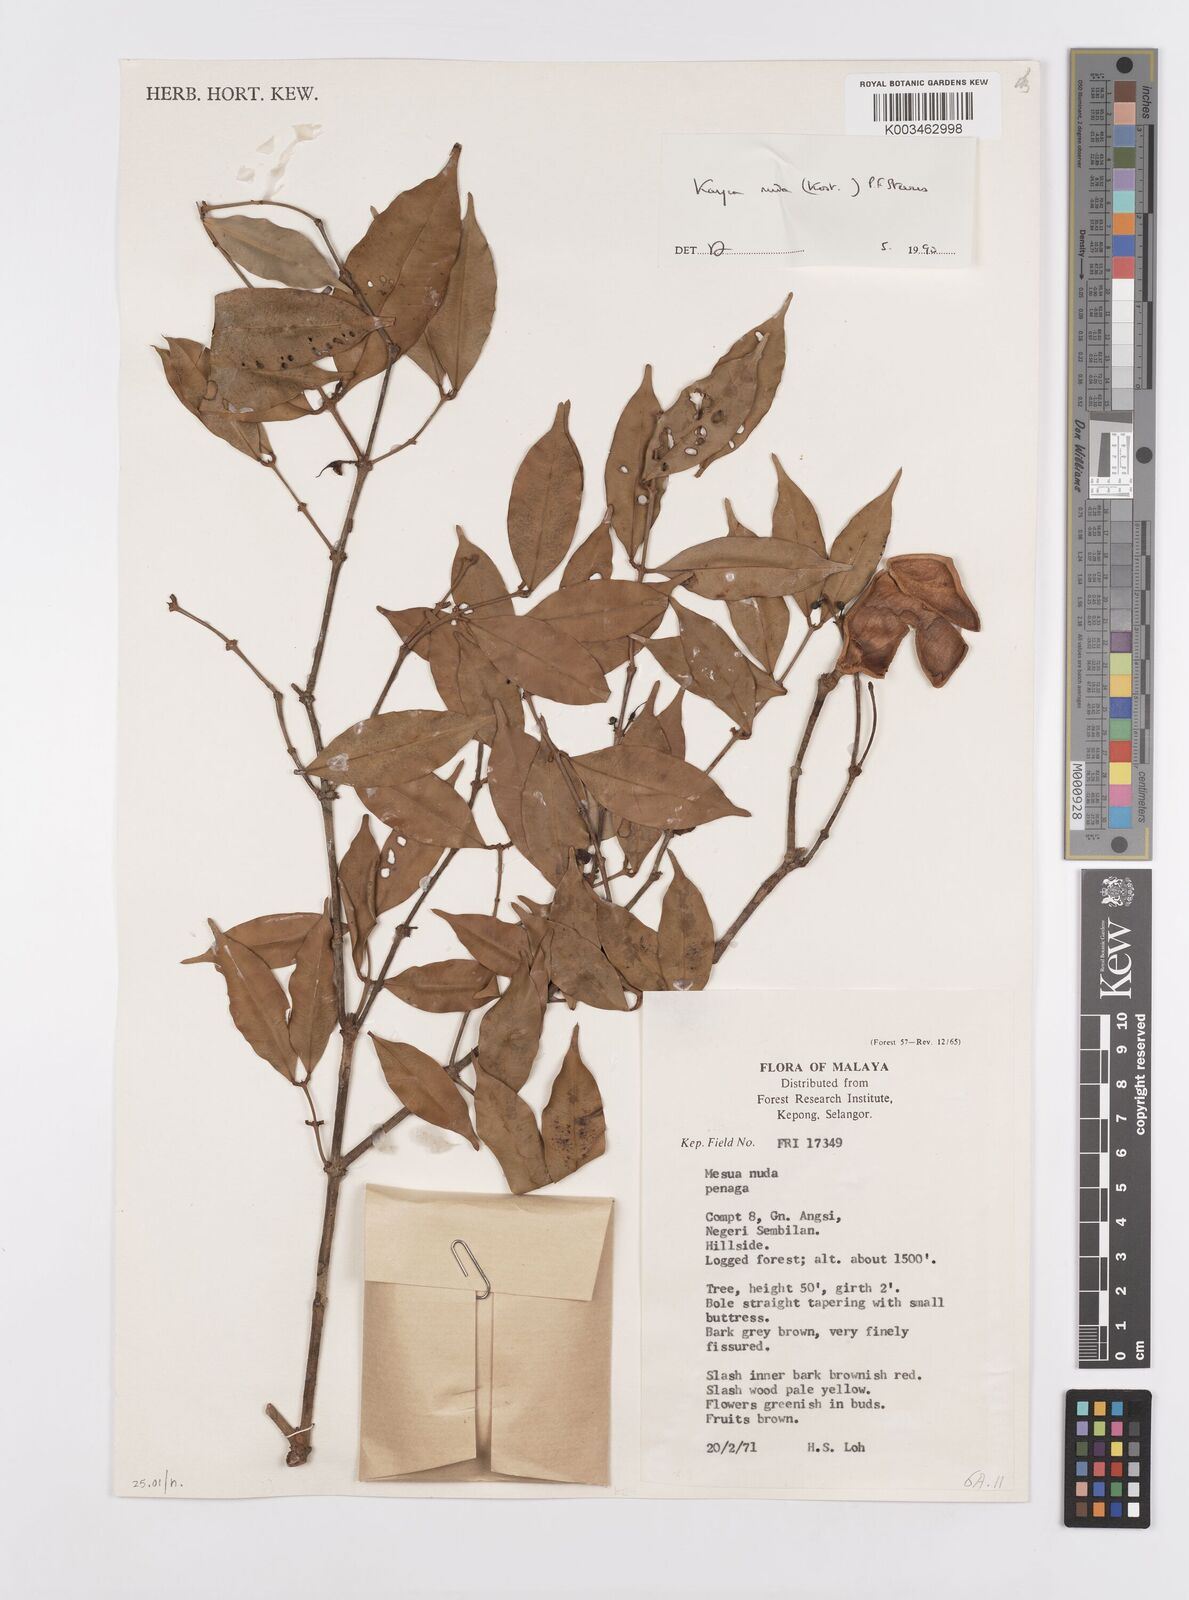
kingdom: Plantae
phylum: Tracheophyta
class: Magnoliopsida
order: Malpighiales
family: Calophyllaceae
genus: Kayea
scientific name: Kayea
